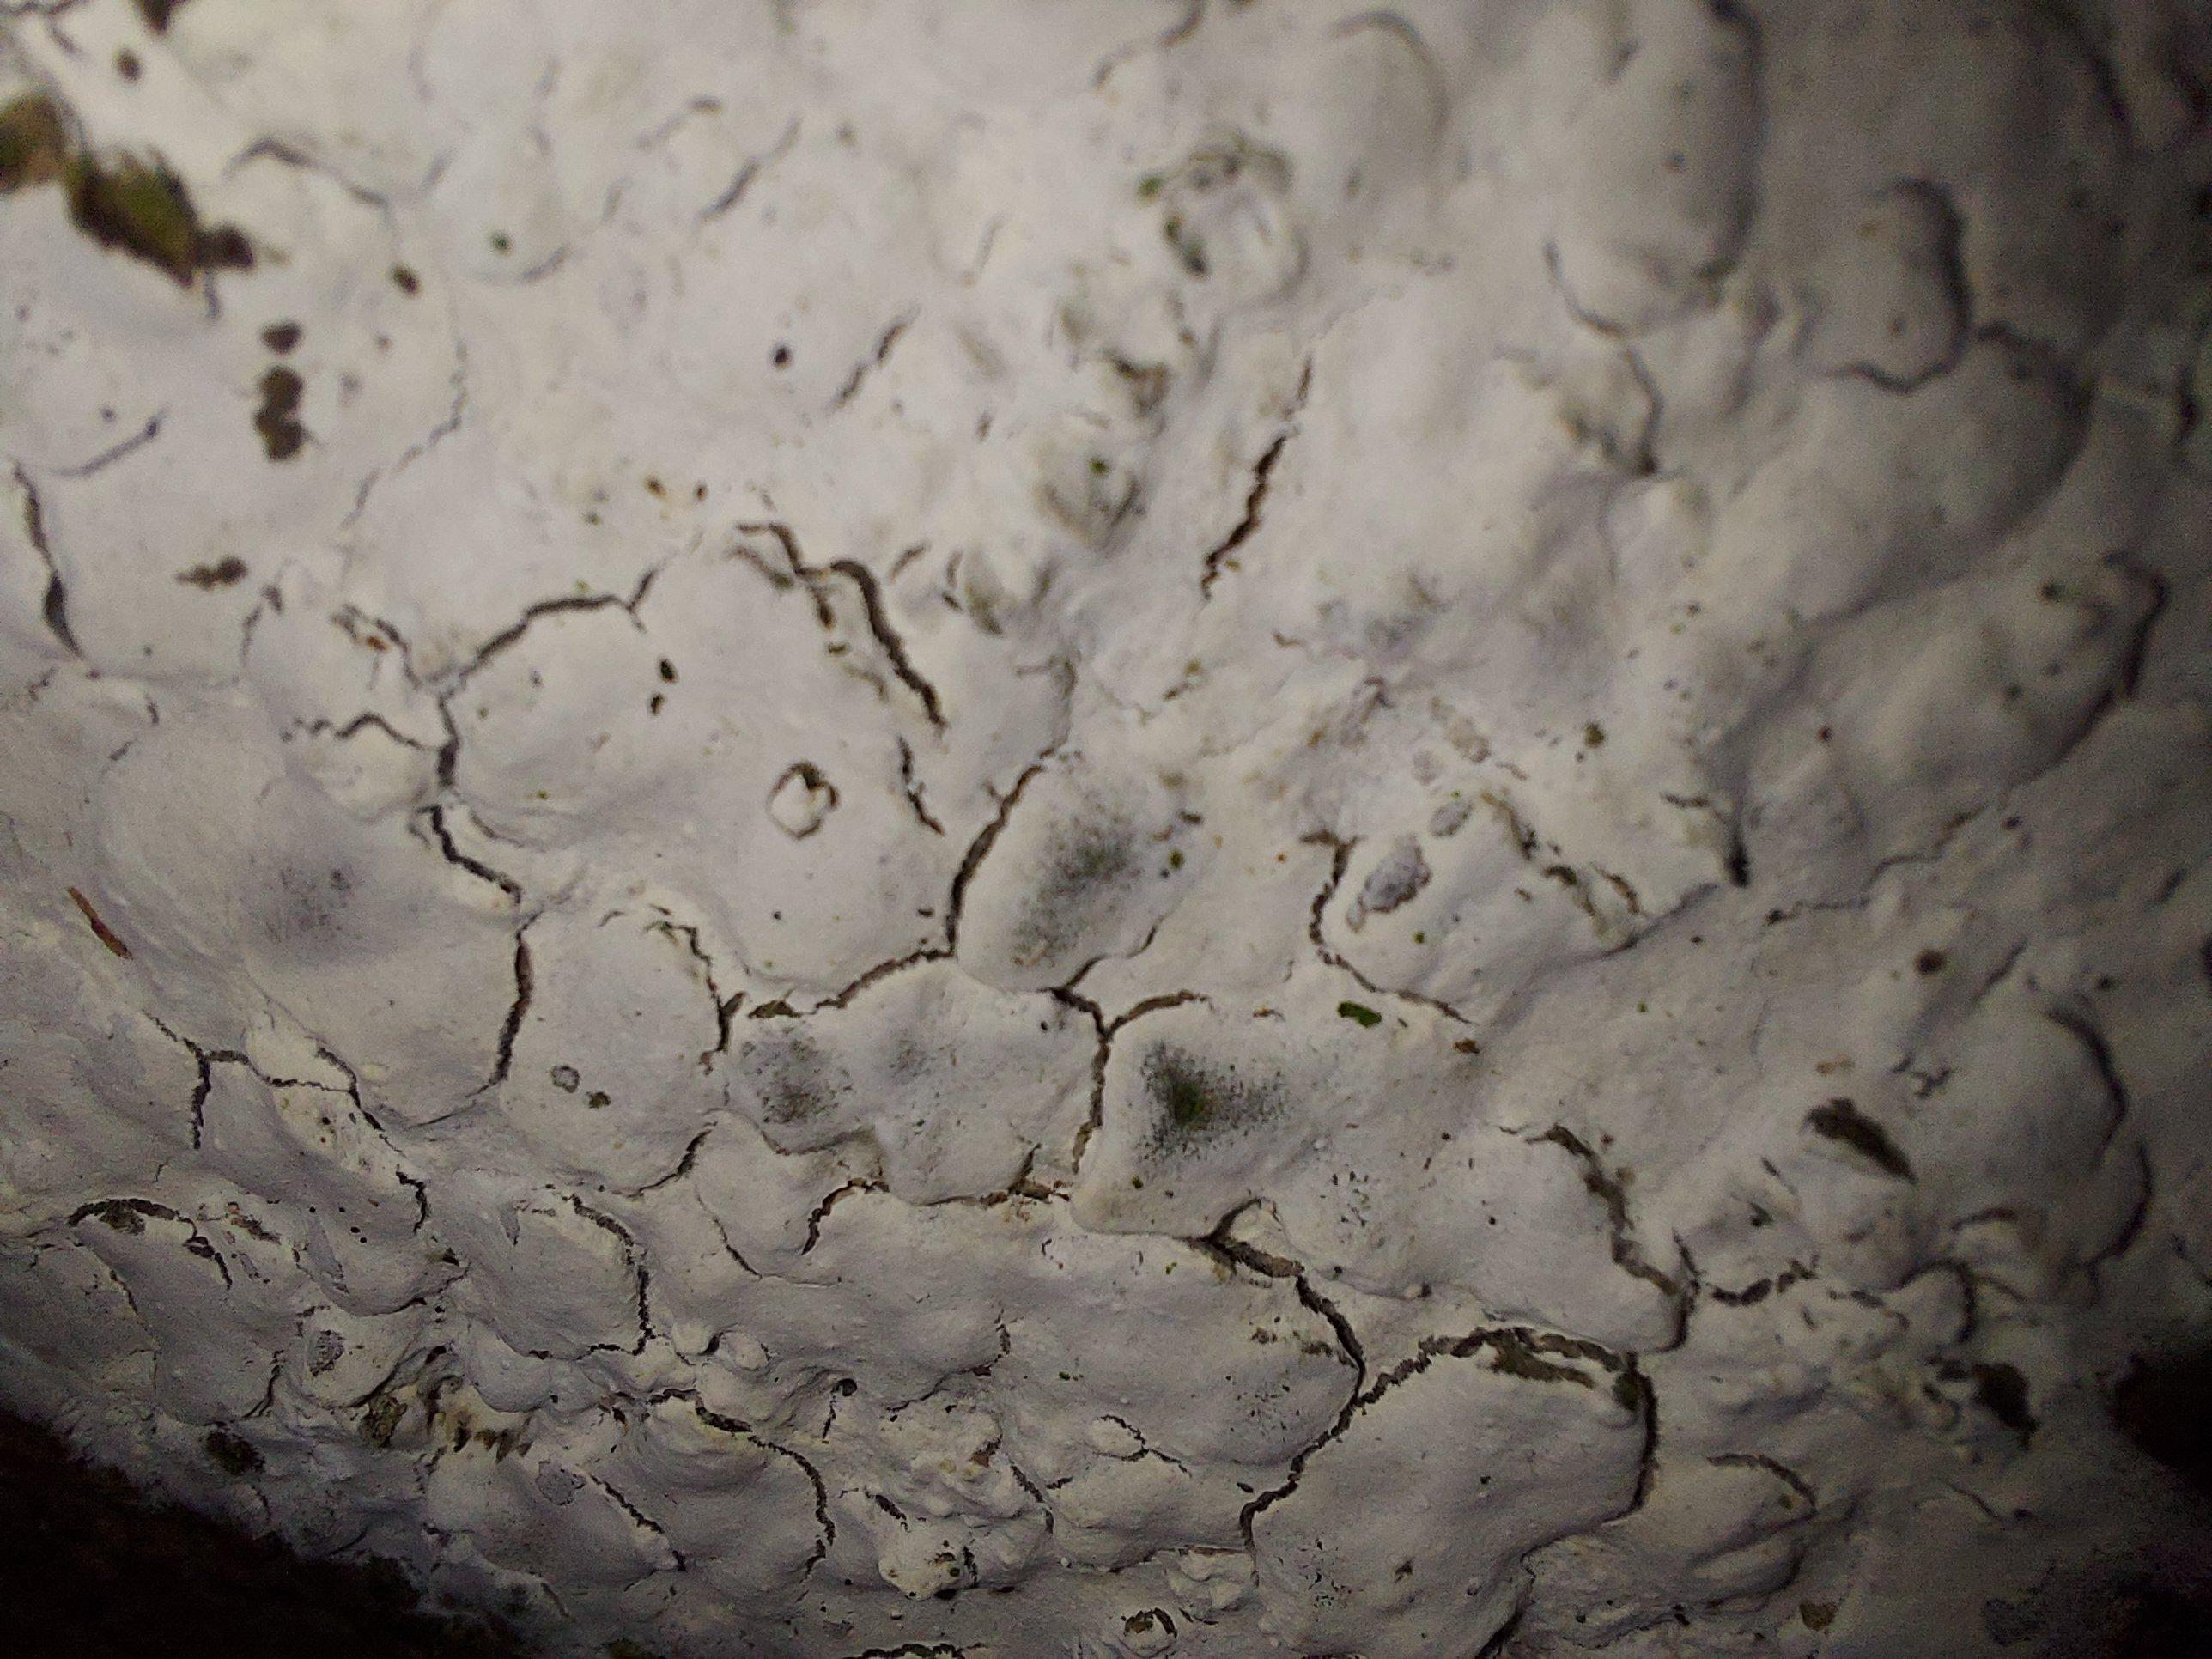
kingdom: Fungi
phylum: Basidiomycota
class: Agaricomycetes
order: Corticiales
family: Corticiaceae
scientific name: Corticiaceae
